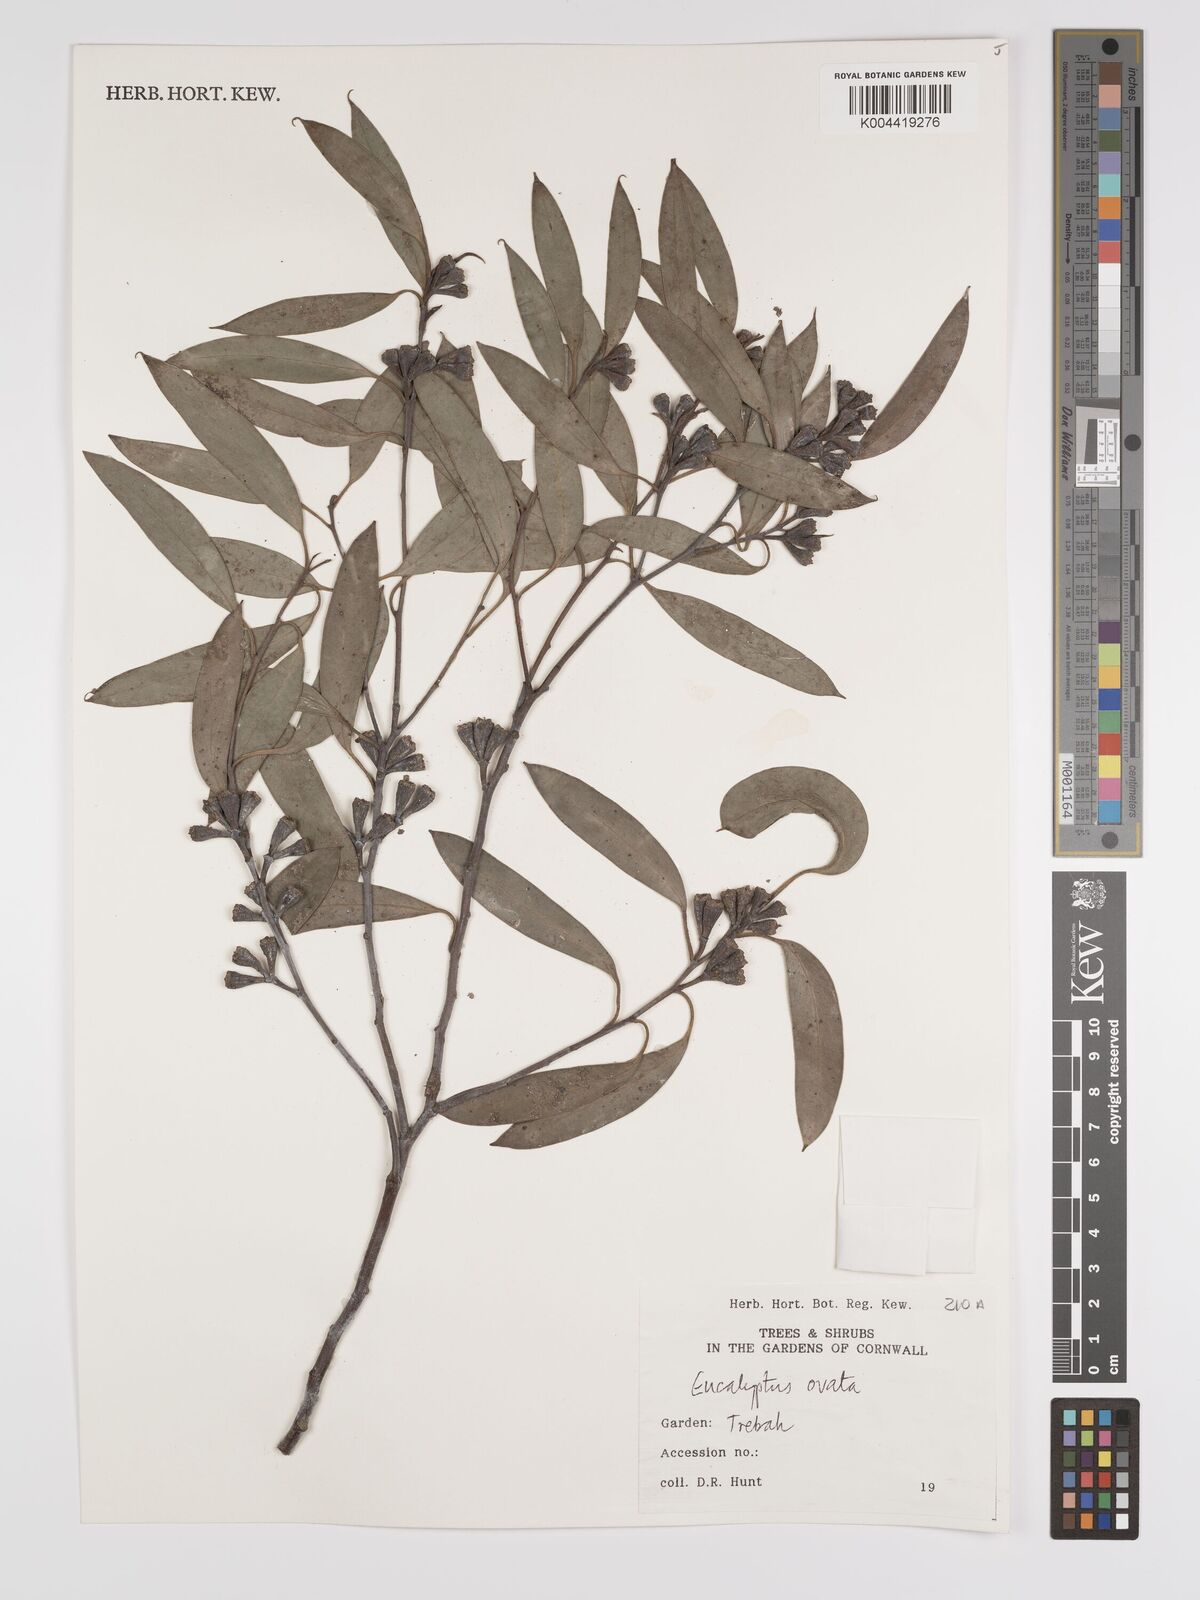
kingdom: Plantae
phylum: Tracheophyta
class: Magnoliopsida
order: Myrtales
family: Myrtaceae
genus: Eucalyptus
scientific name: Eucalyptus ovata
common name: Black-gum
